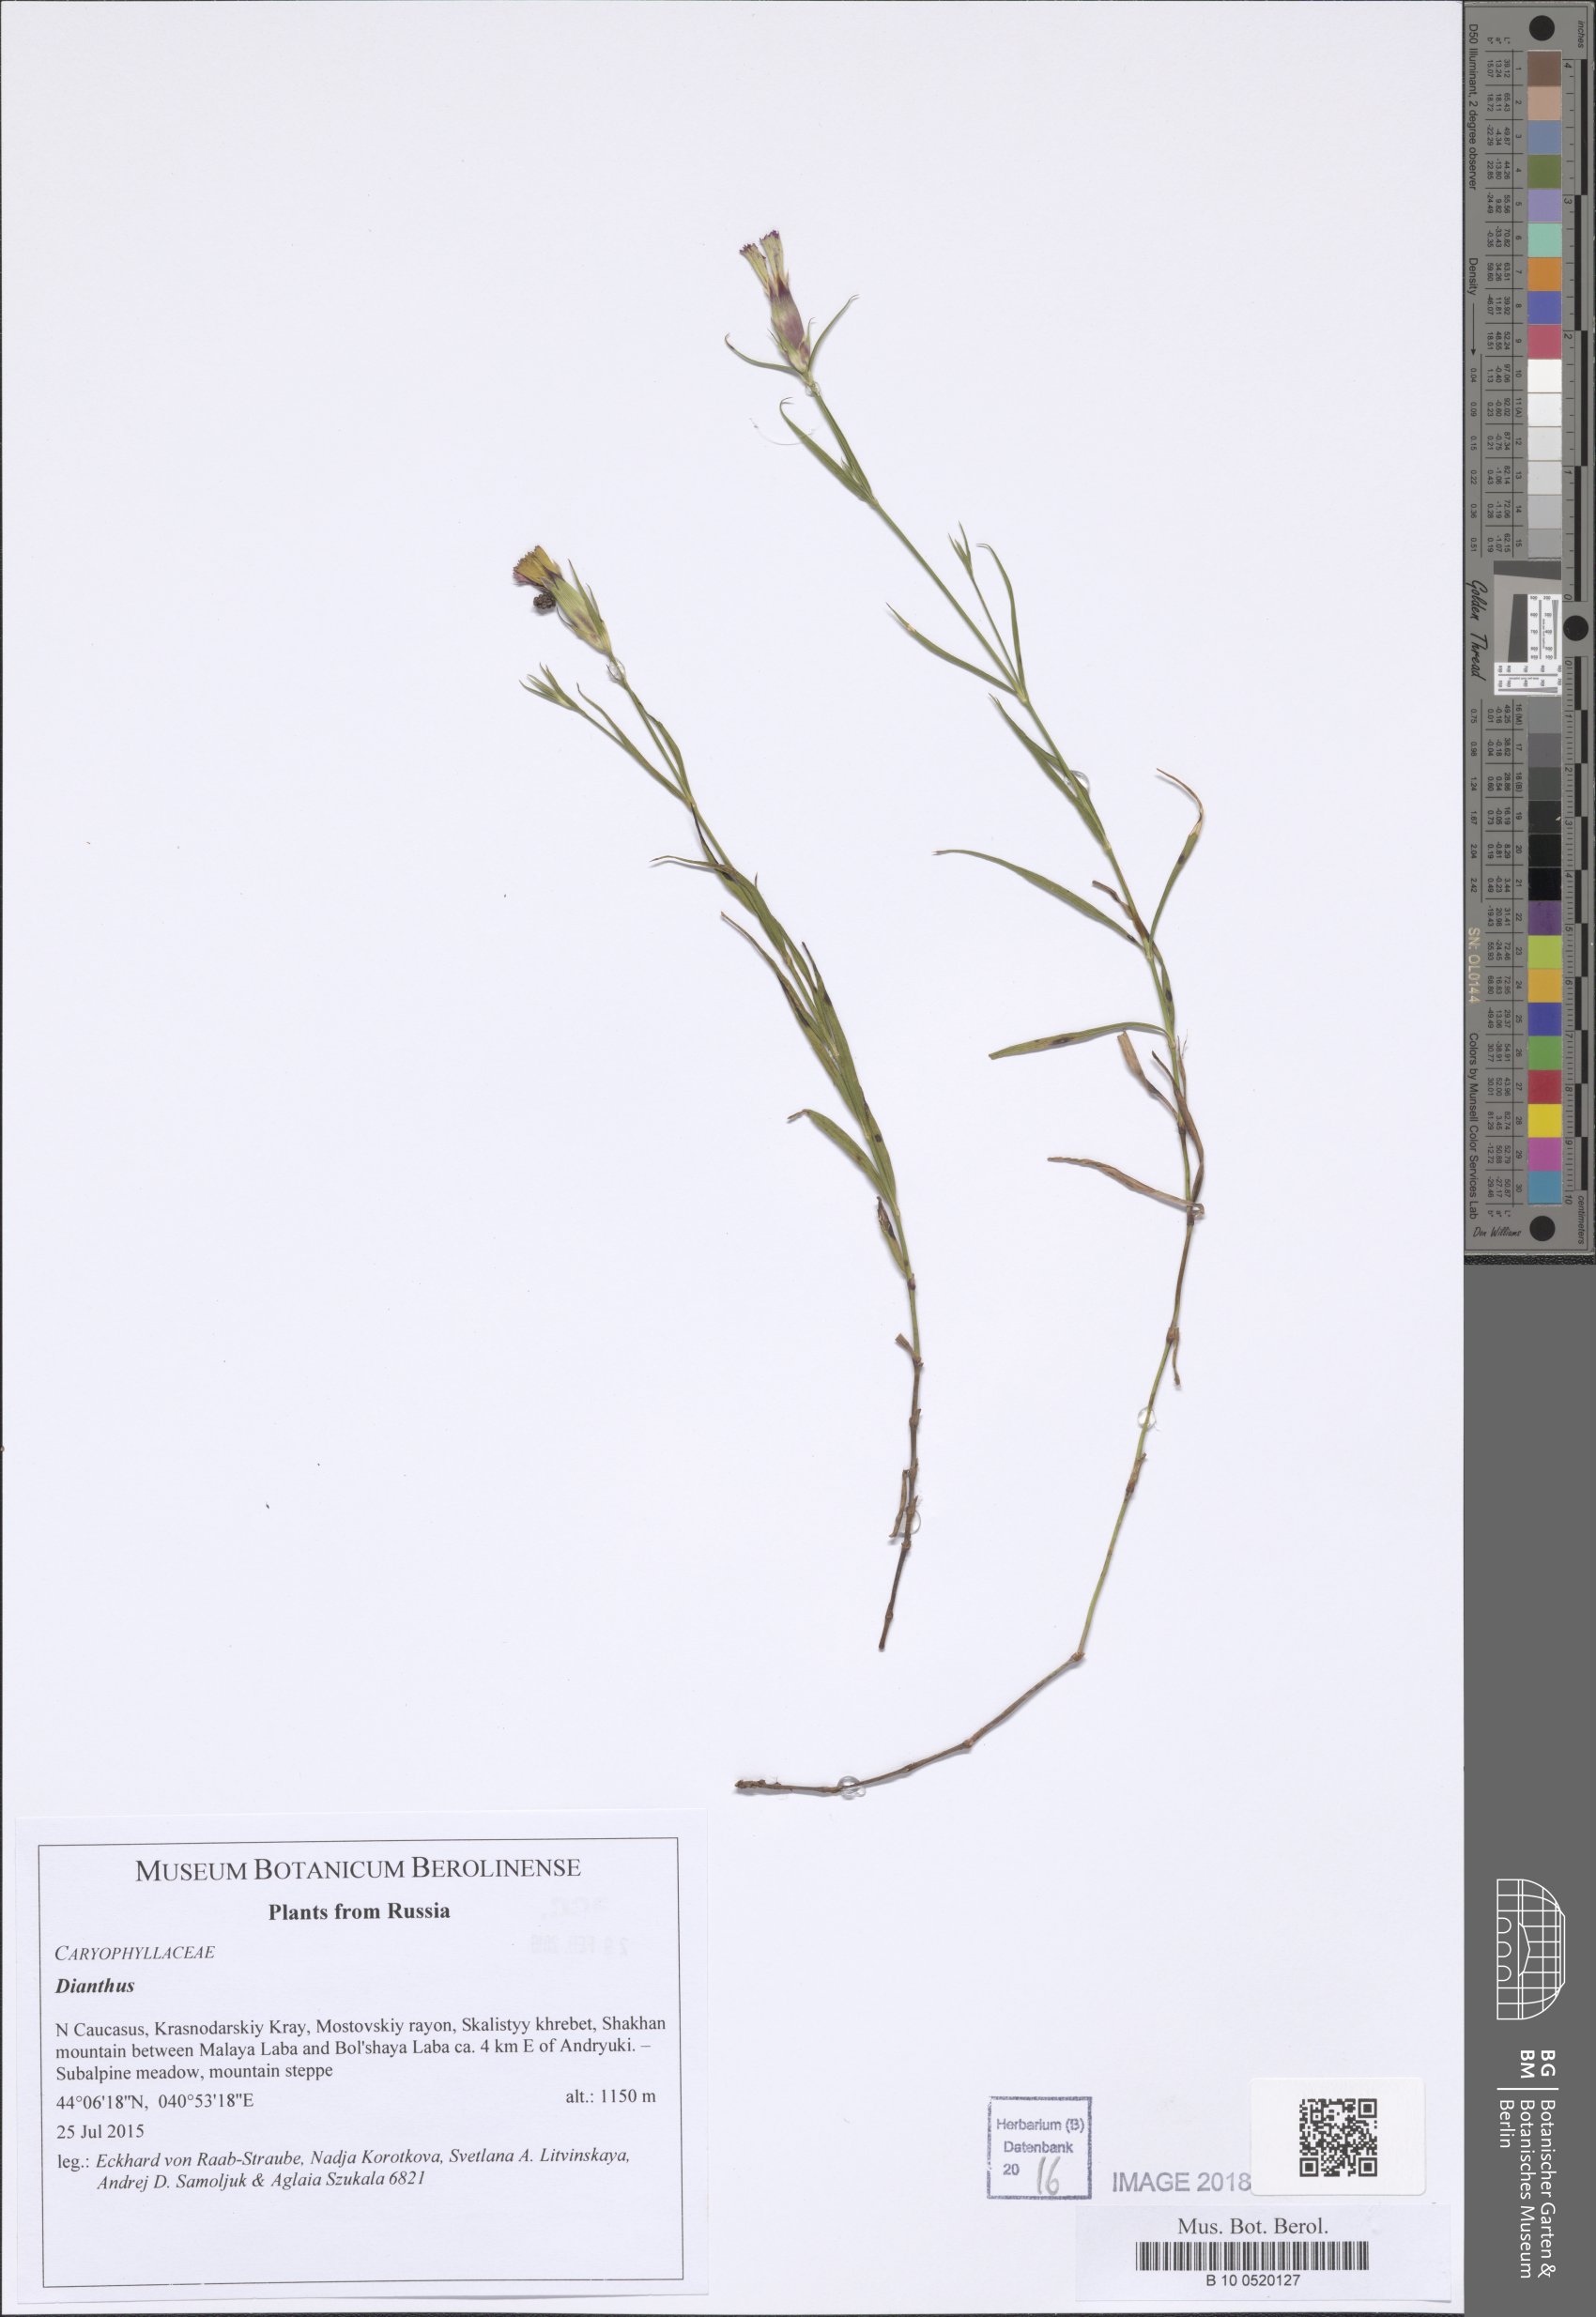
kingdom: Plantae
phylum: Tracheophyta
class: Magnoliopsida
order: Caryophyllales
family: Caryophyllaceae
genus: Dianthus
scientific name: Dianthus
